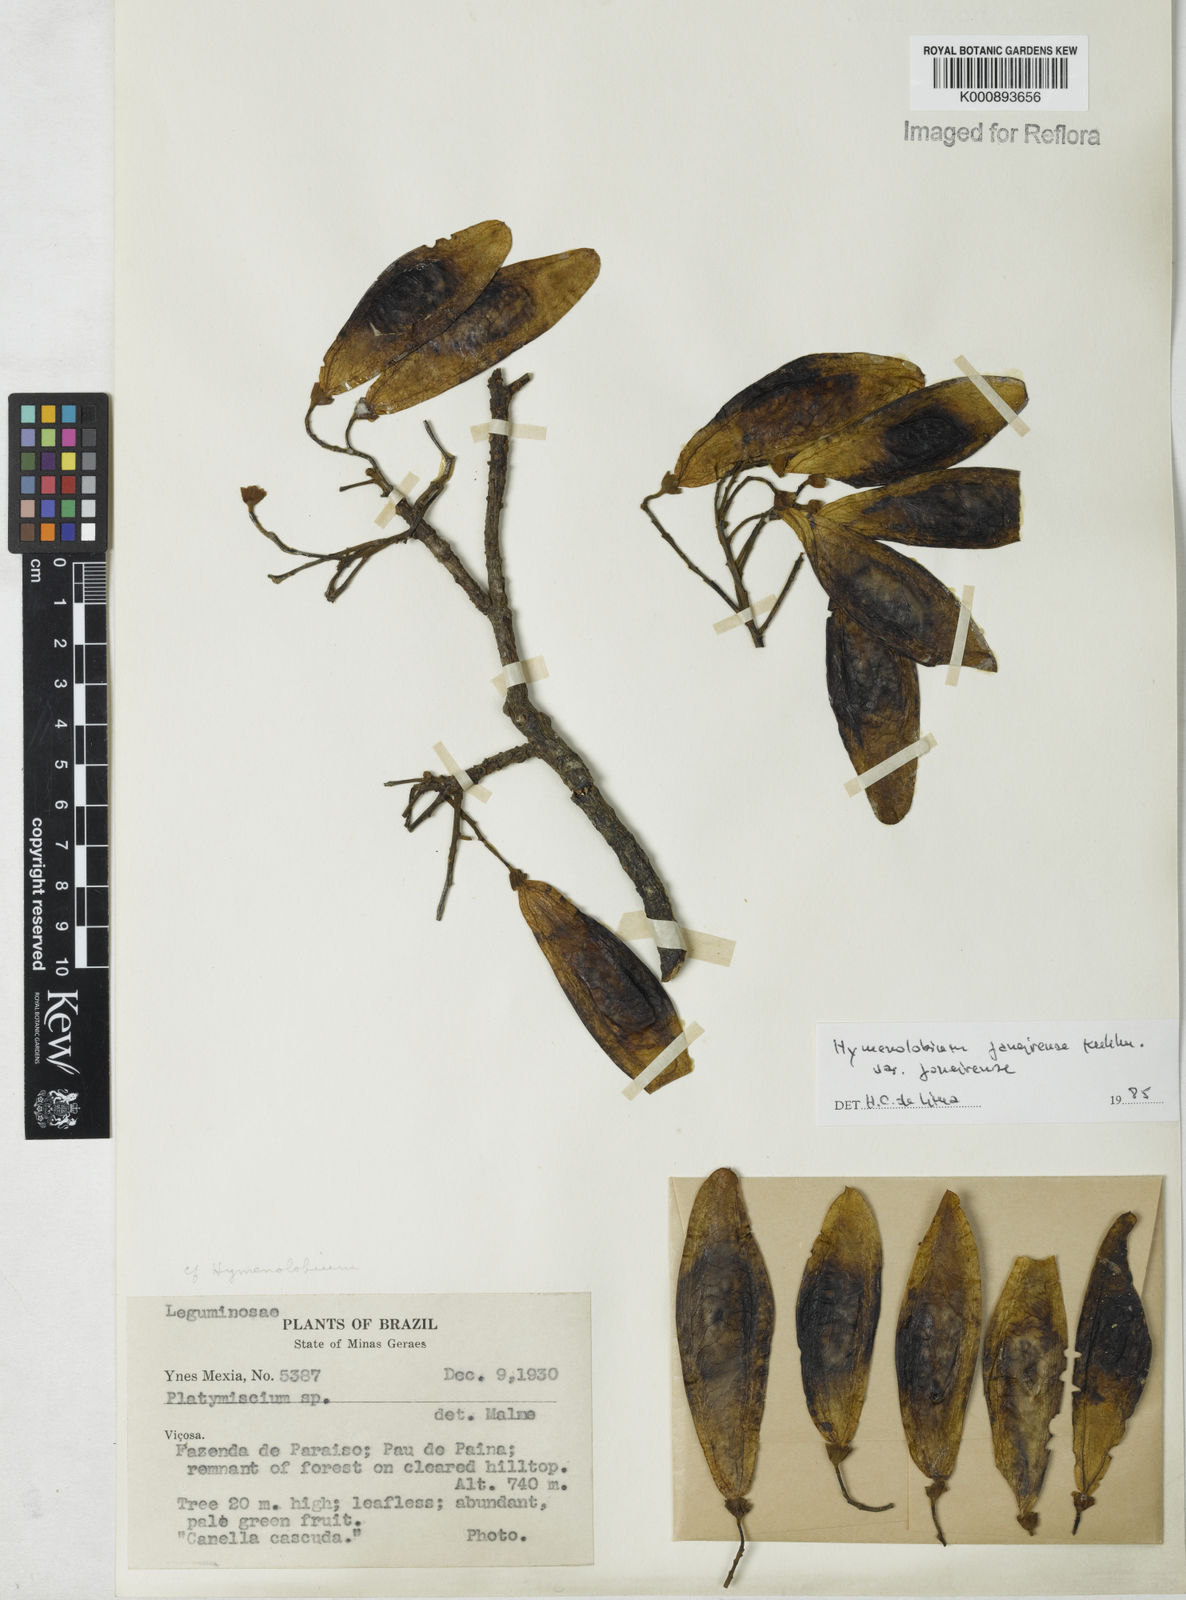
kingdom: Plantae
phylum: Tracheophyta
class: Magnoliopsida
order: Fabales
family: Fabaceae
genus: Hymenolobium
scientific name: Hymenolobium janeirense
